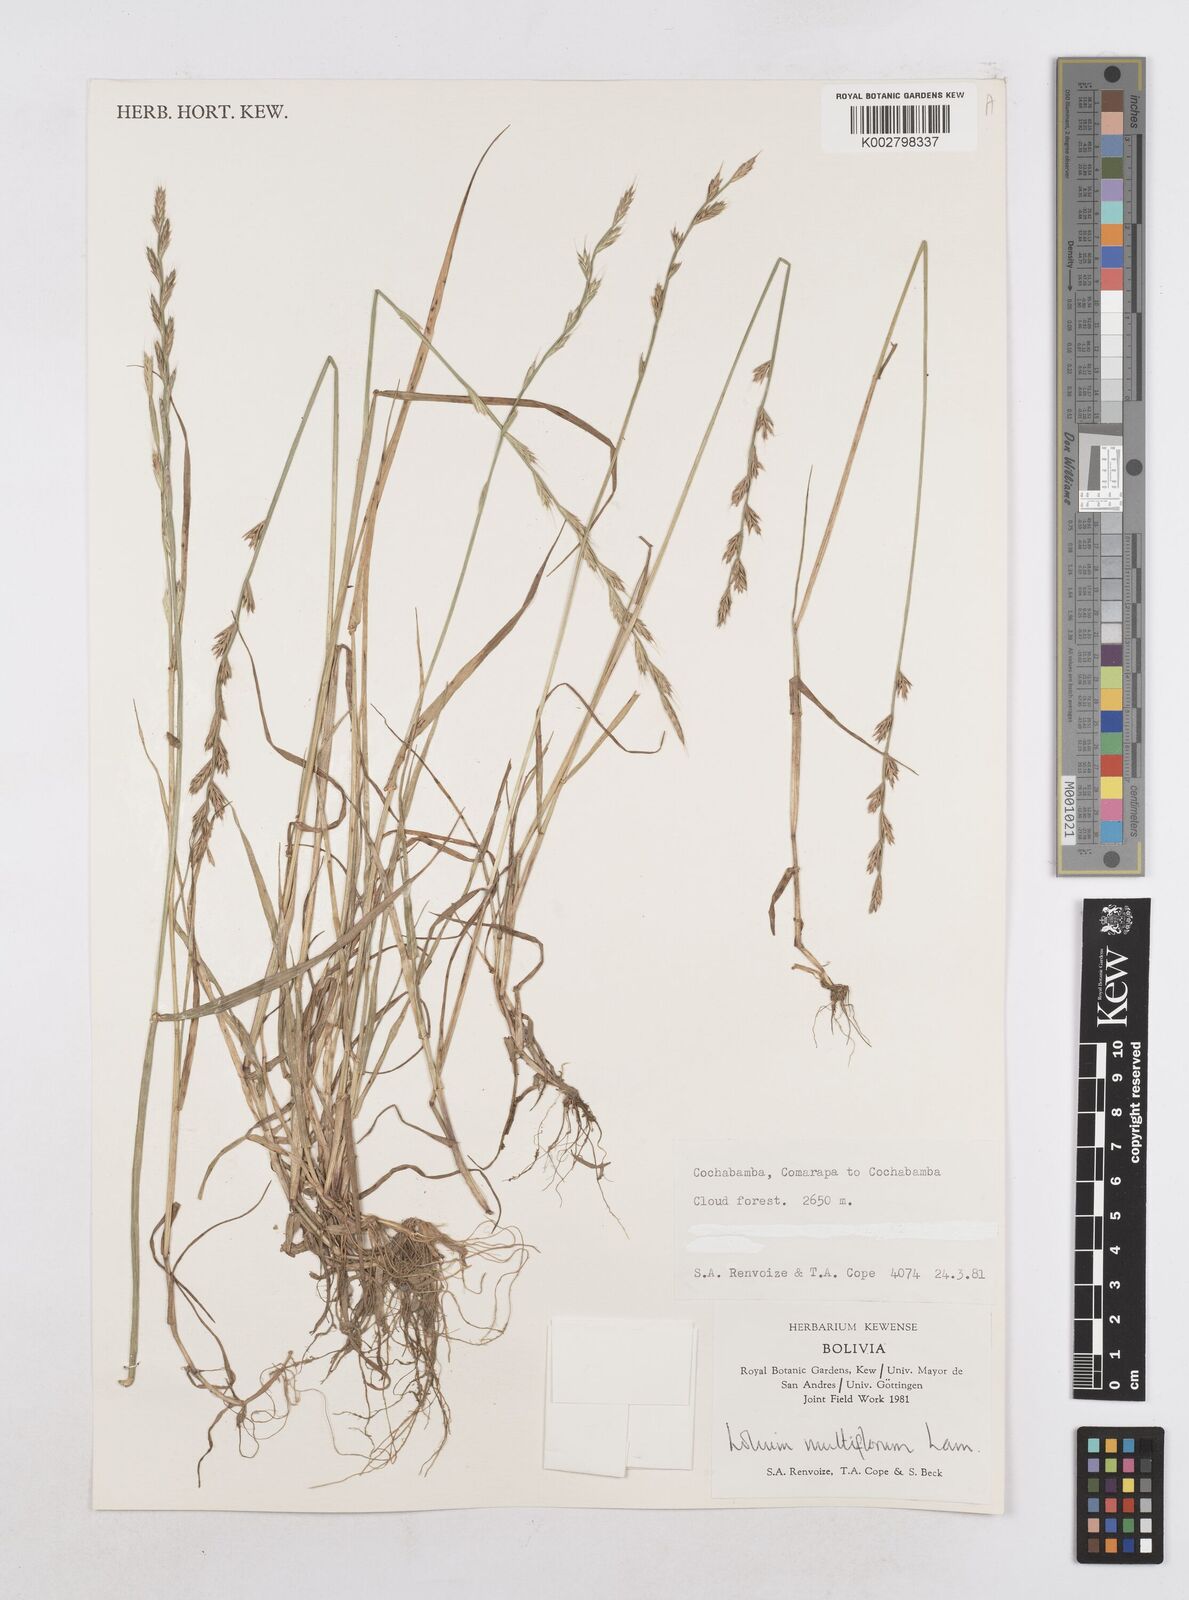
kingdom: Plantae
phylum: Tracheophyta
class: Liliopsida
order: Poales
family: Poaceae
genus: Lolium
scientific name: Lolium multiflorum
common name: Annual ryegrass
